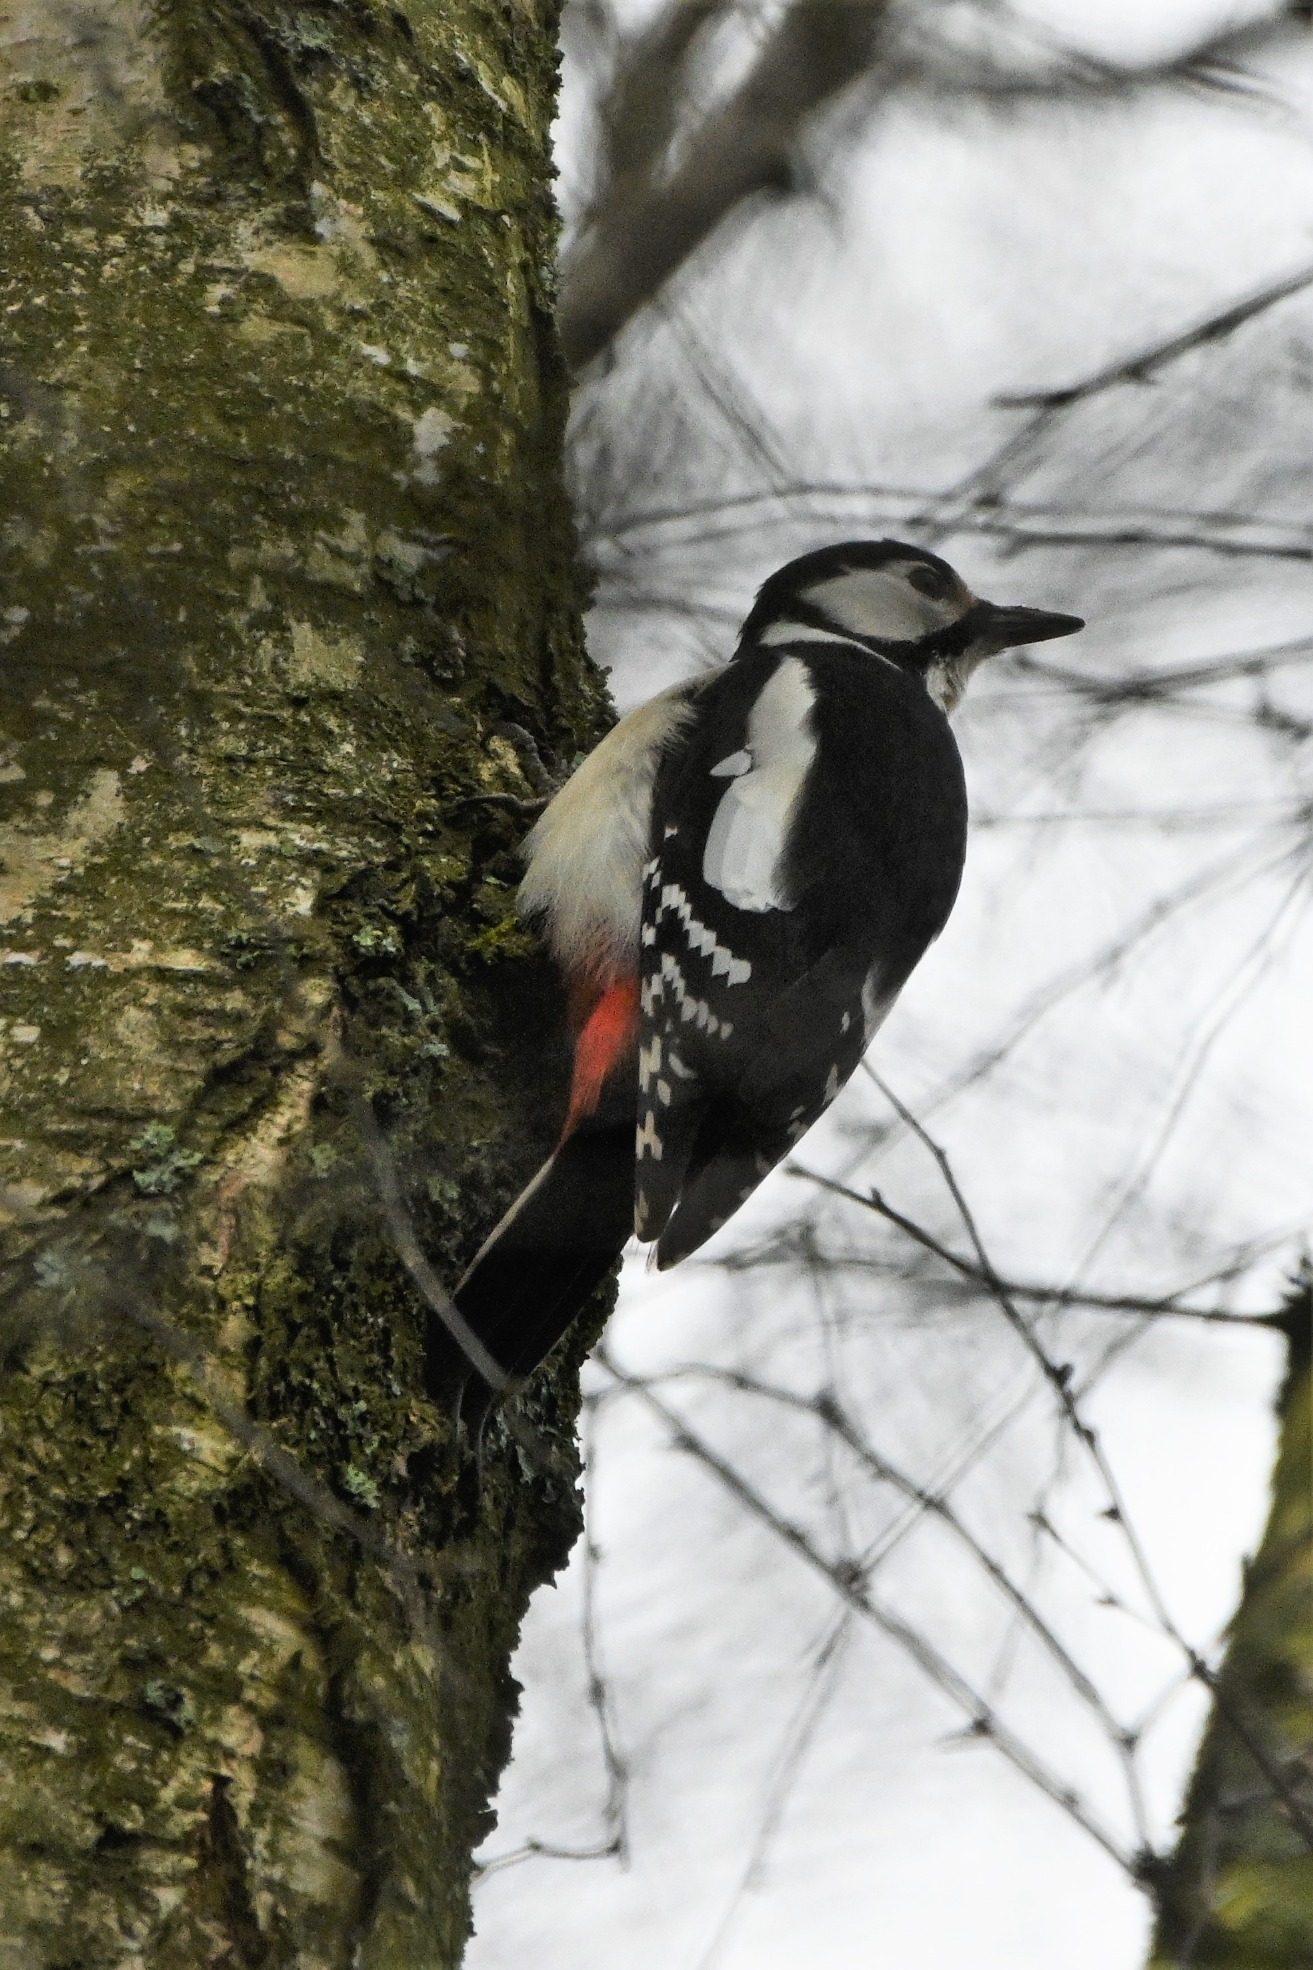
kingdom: Animalia
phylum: Chordata
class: Aves
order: Piciformes
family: Picidae
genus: Dendrocopos
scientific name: Dendrocopos major
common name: Stor flagspætte
